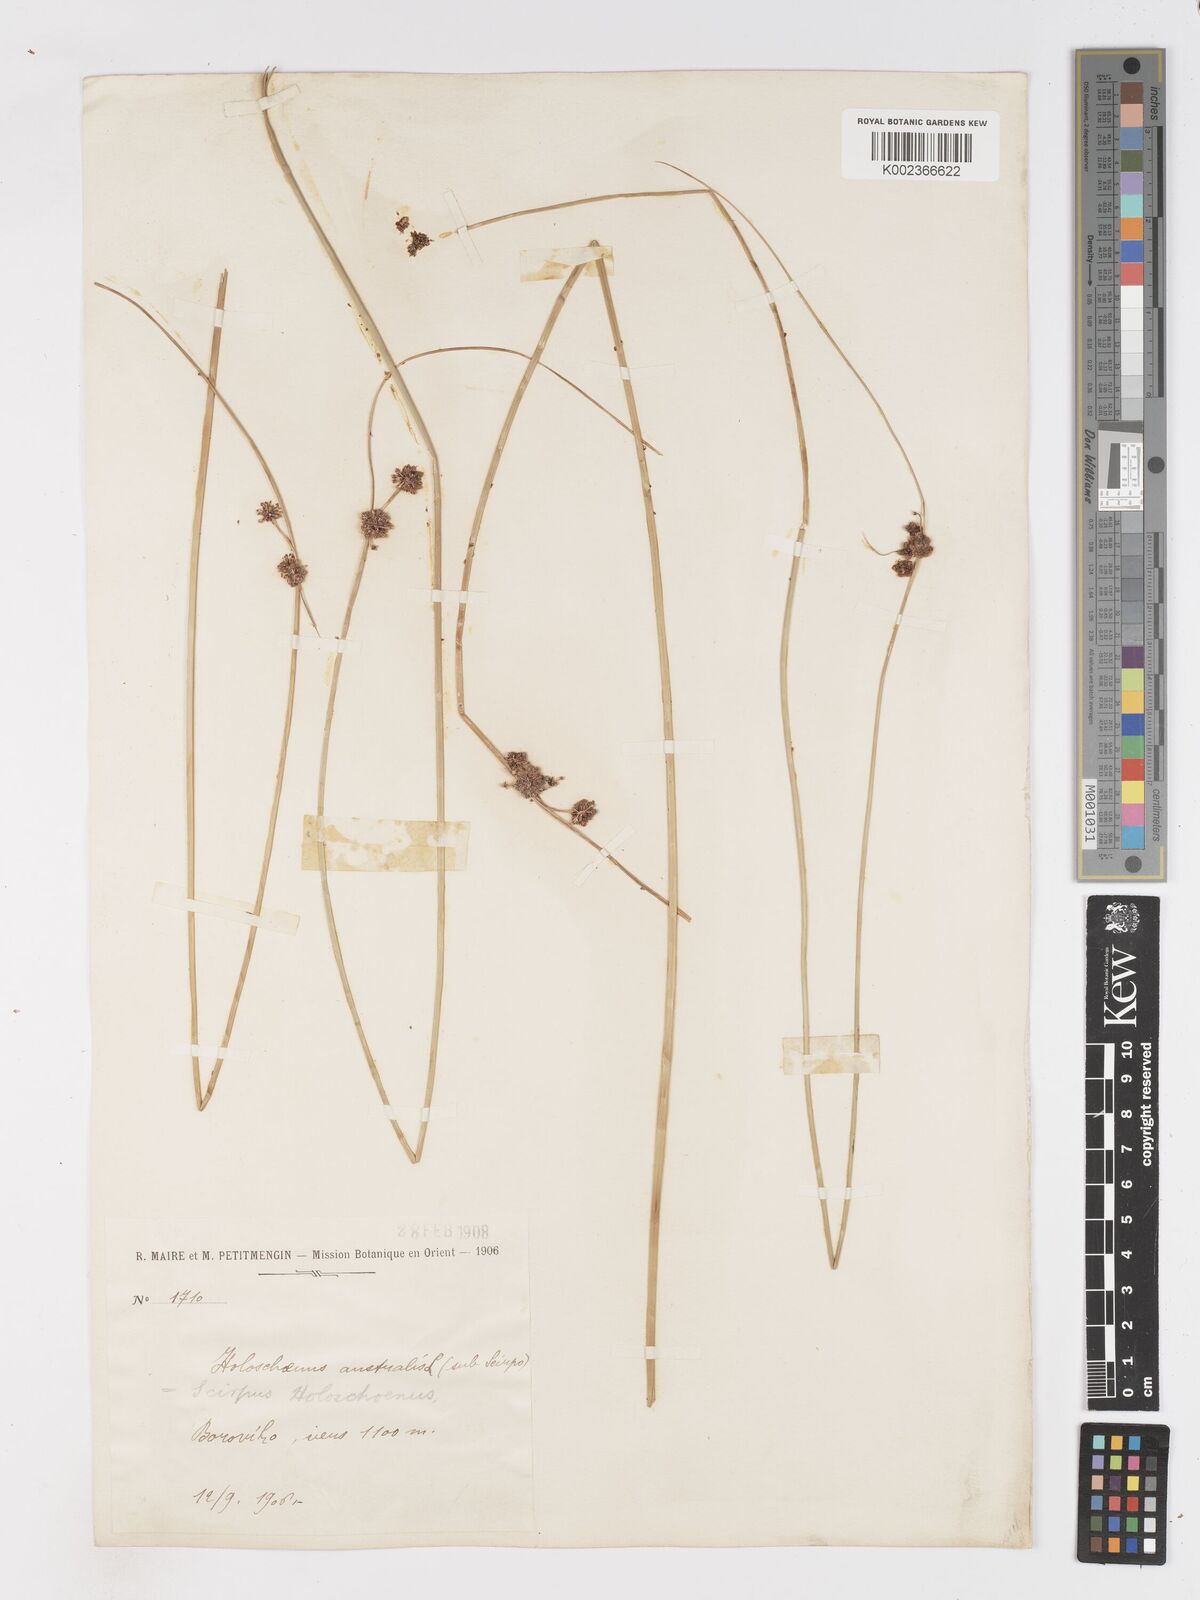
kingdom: Plantae
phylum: Tracheophyta
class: Liliopsida
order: Poales
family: Cyperaceae
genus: Scirpoides
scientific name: Scirpoides holoschoenus
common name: Round-headed club-rush
